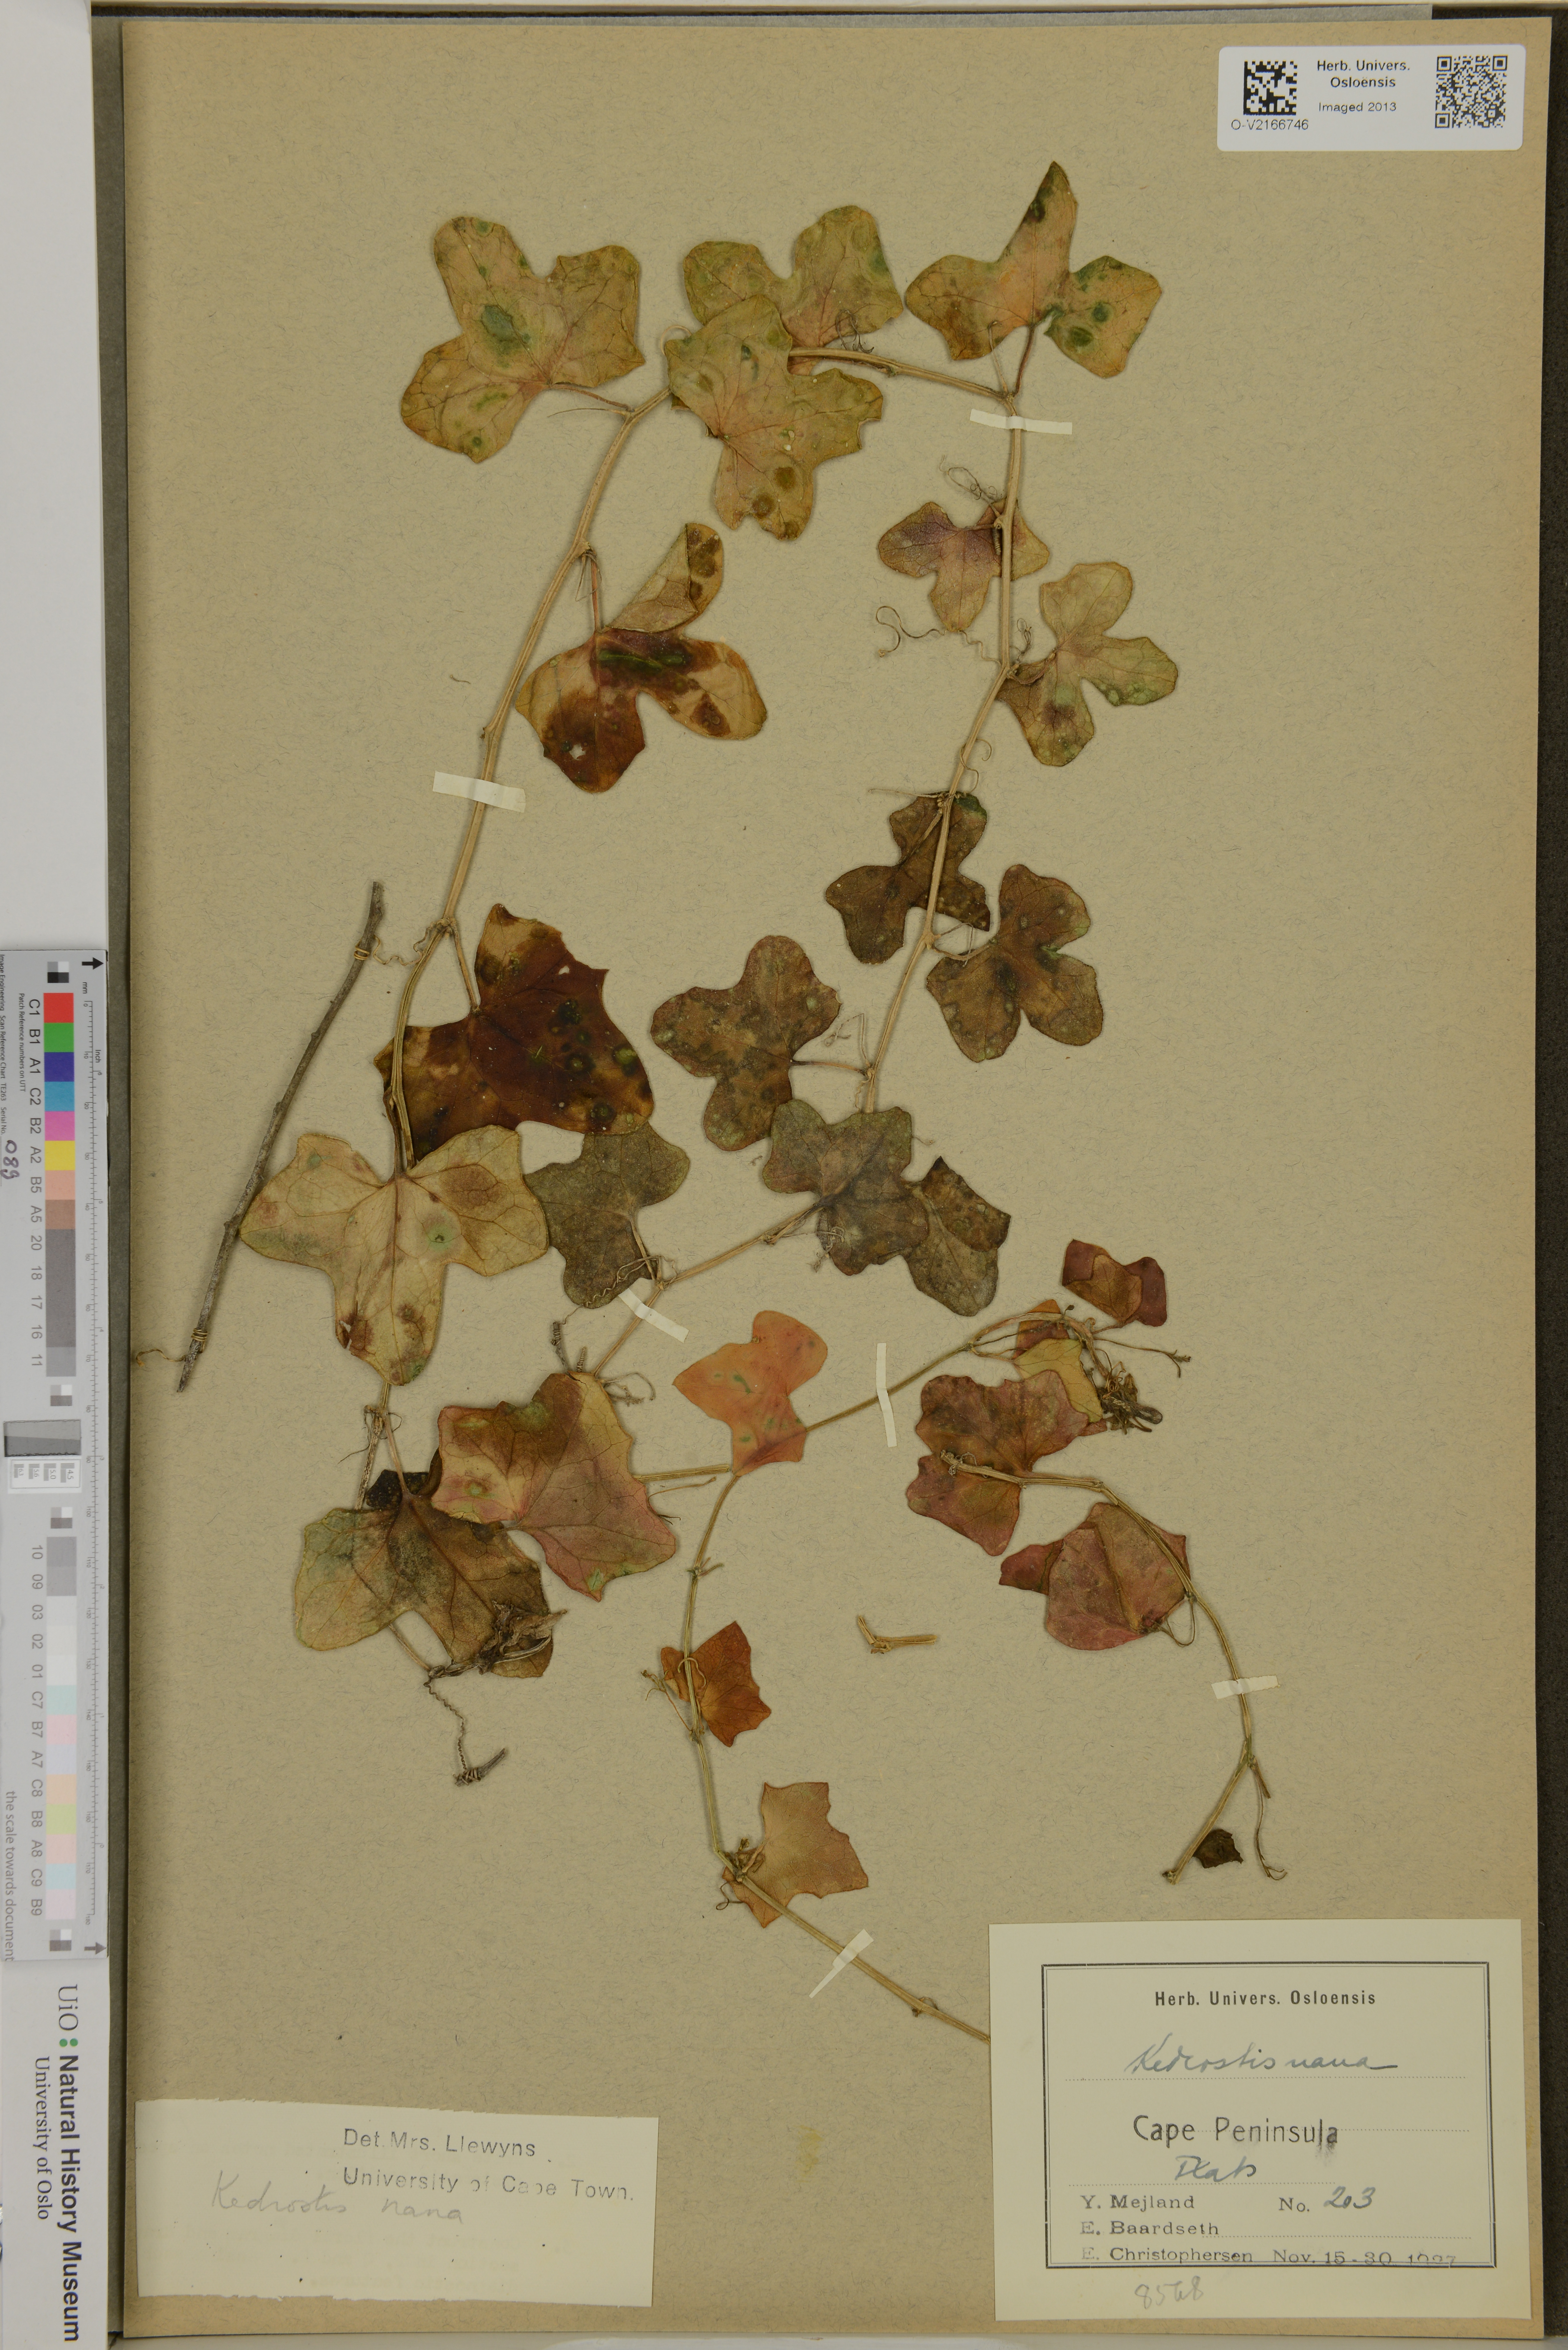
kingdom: Plantae
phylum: Tracheophyta
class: Magnoliopsida
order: Cucurbitales
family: Cucurbitaceae
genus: Kedrostis
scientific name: Kedrostis nana
